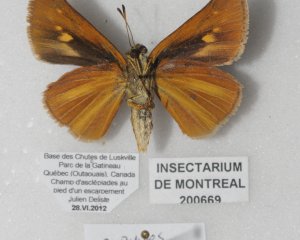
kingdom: Animalia
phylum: Arthropoda
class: Insecta
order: Lepidoptera
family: Hesperiidae
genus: Euphyes
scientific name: Euphyes dion
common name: Dion Skipper
